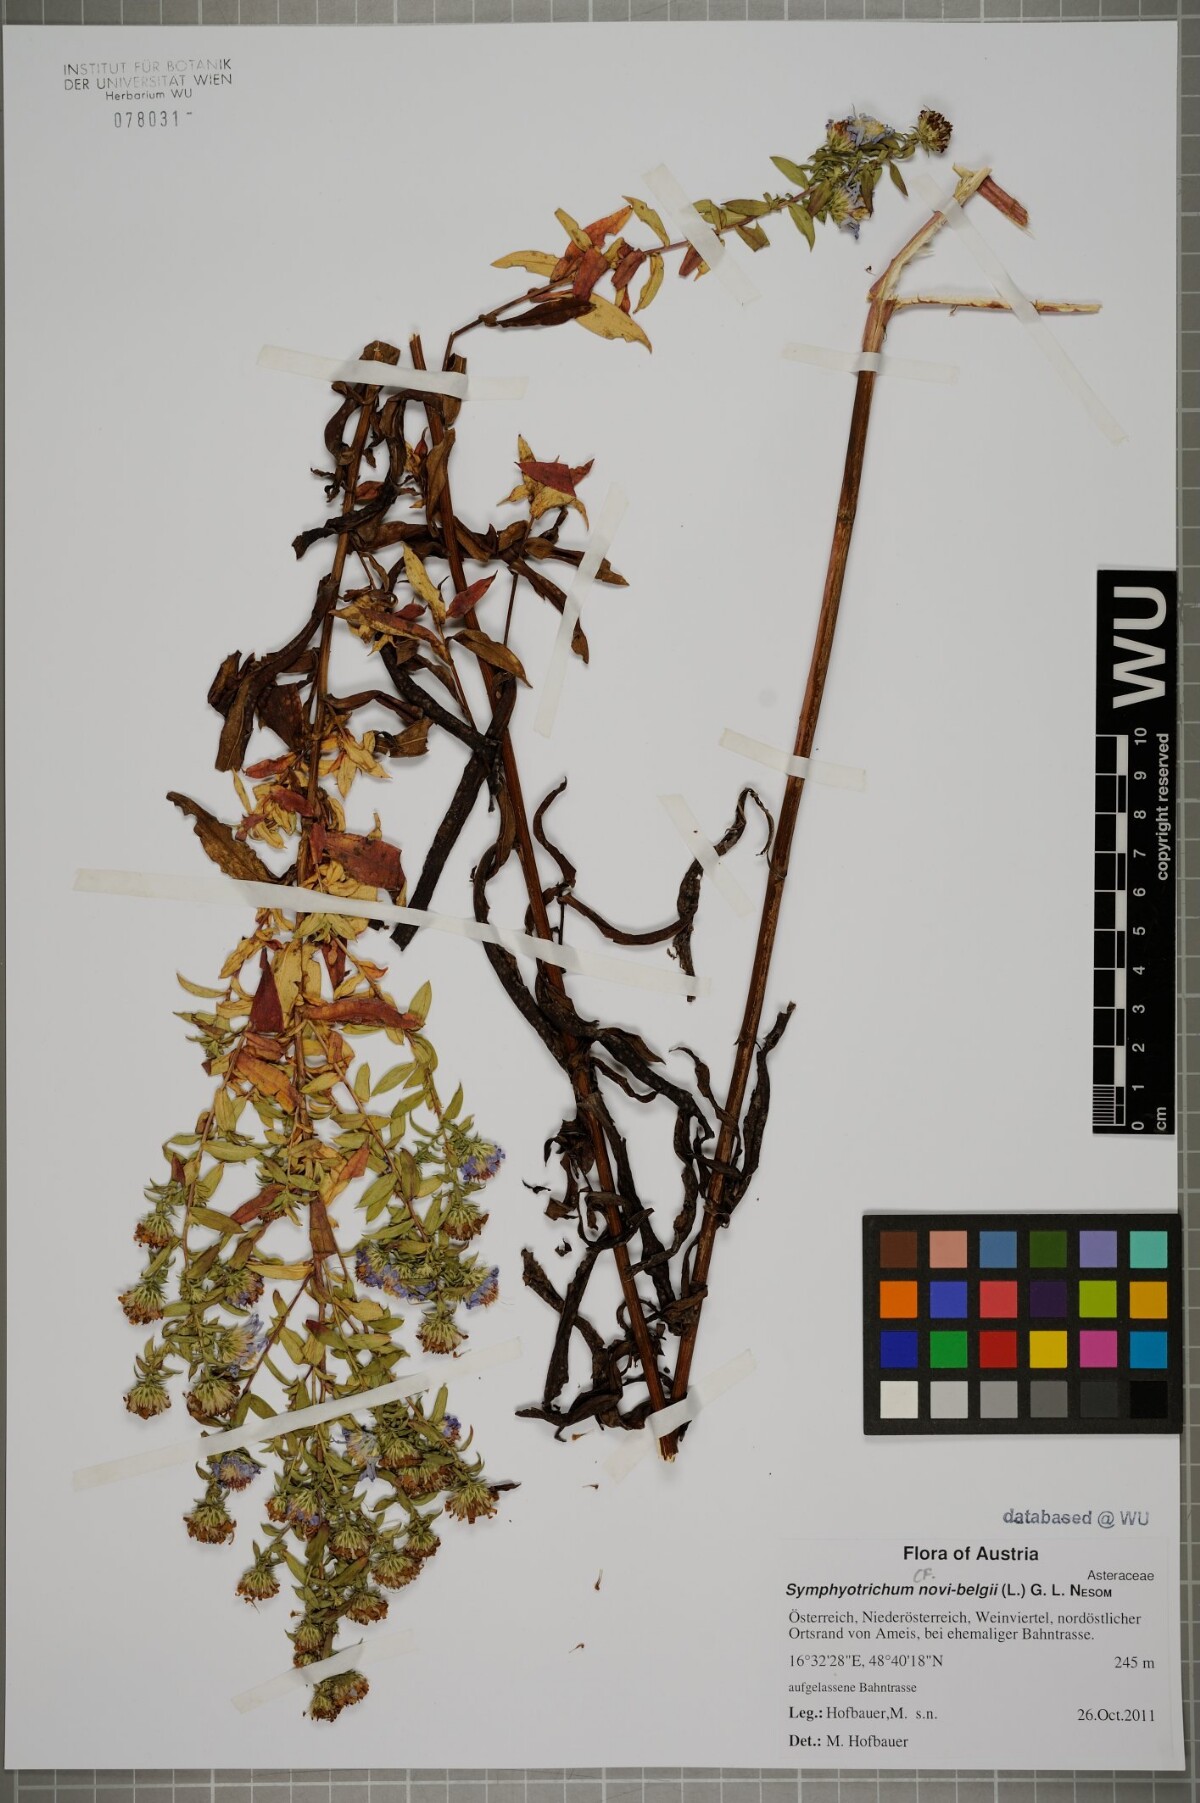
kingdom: Plantae
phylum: Tracheophyta
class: Magnoliopsida
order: Asterales
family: Asteraceae
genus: Symphyotrichum
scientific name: Symphyotrichum novi-belgii
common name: Michaelmas daisy
